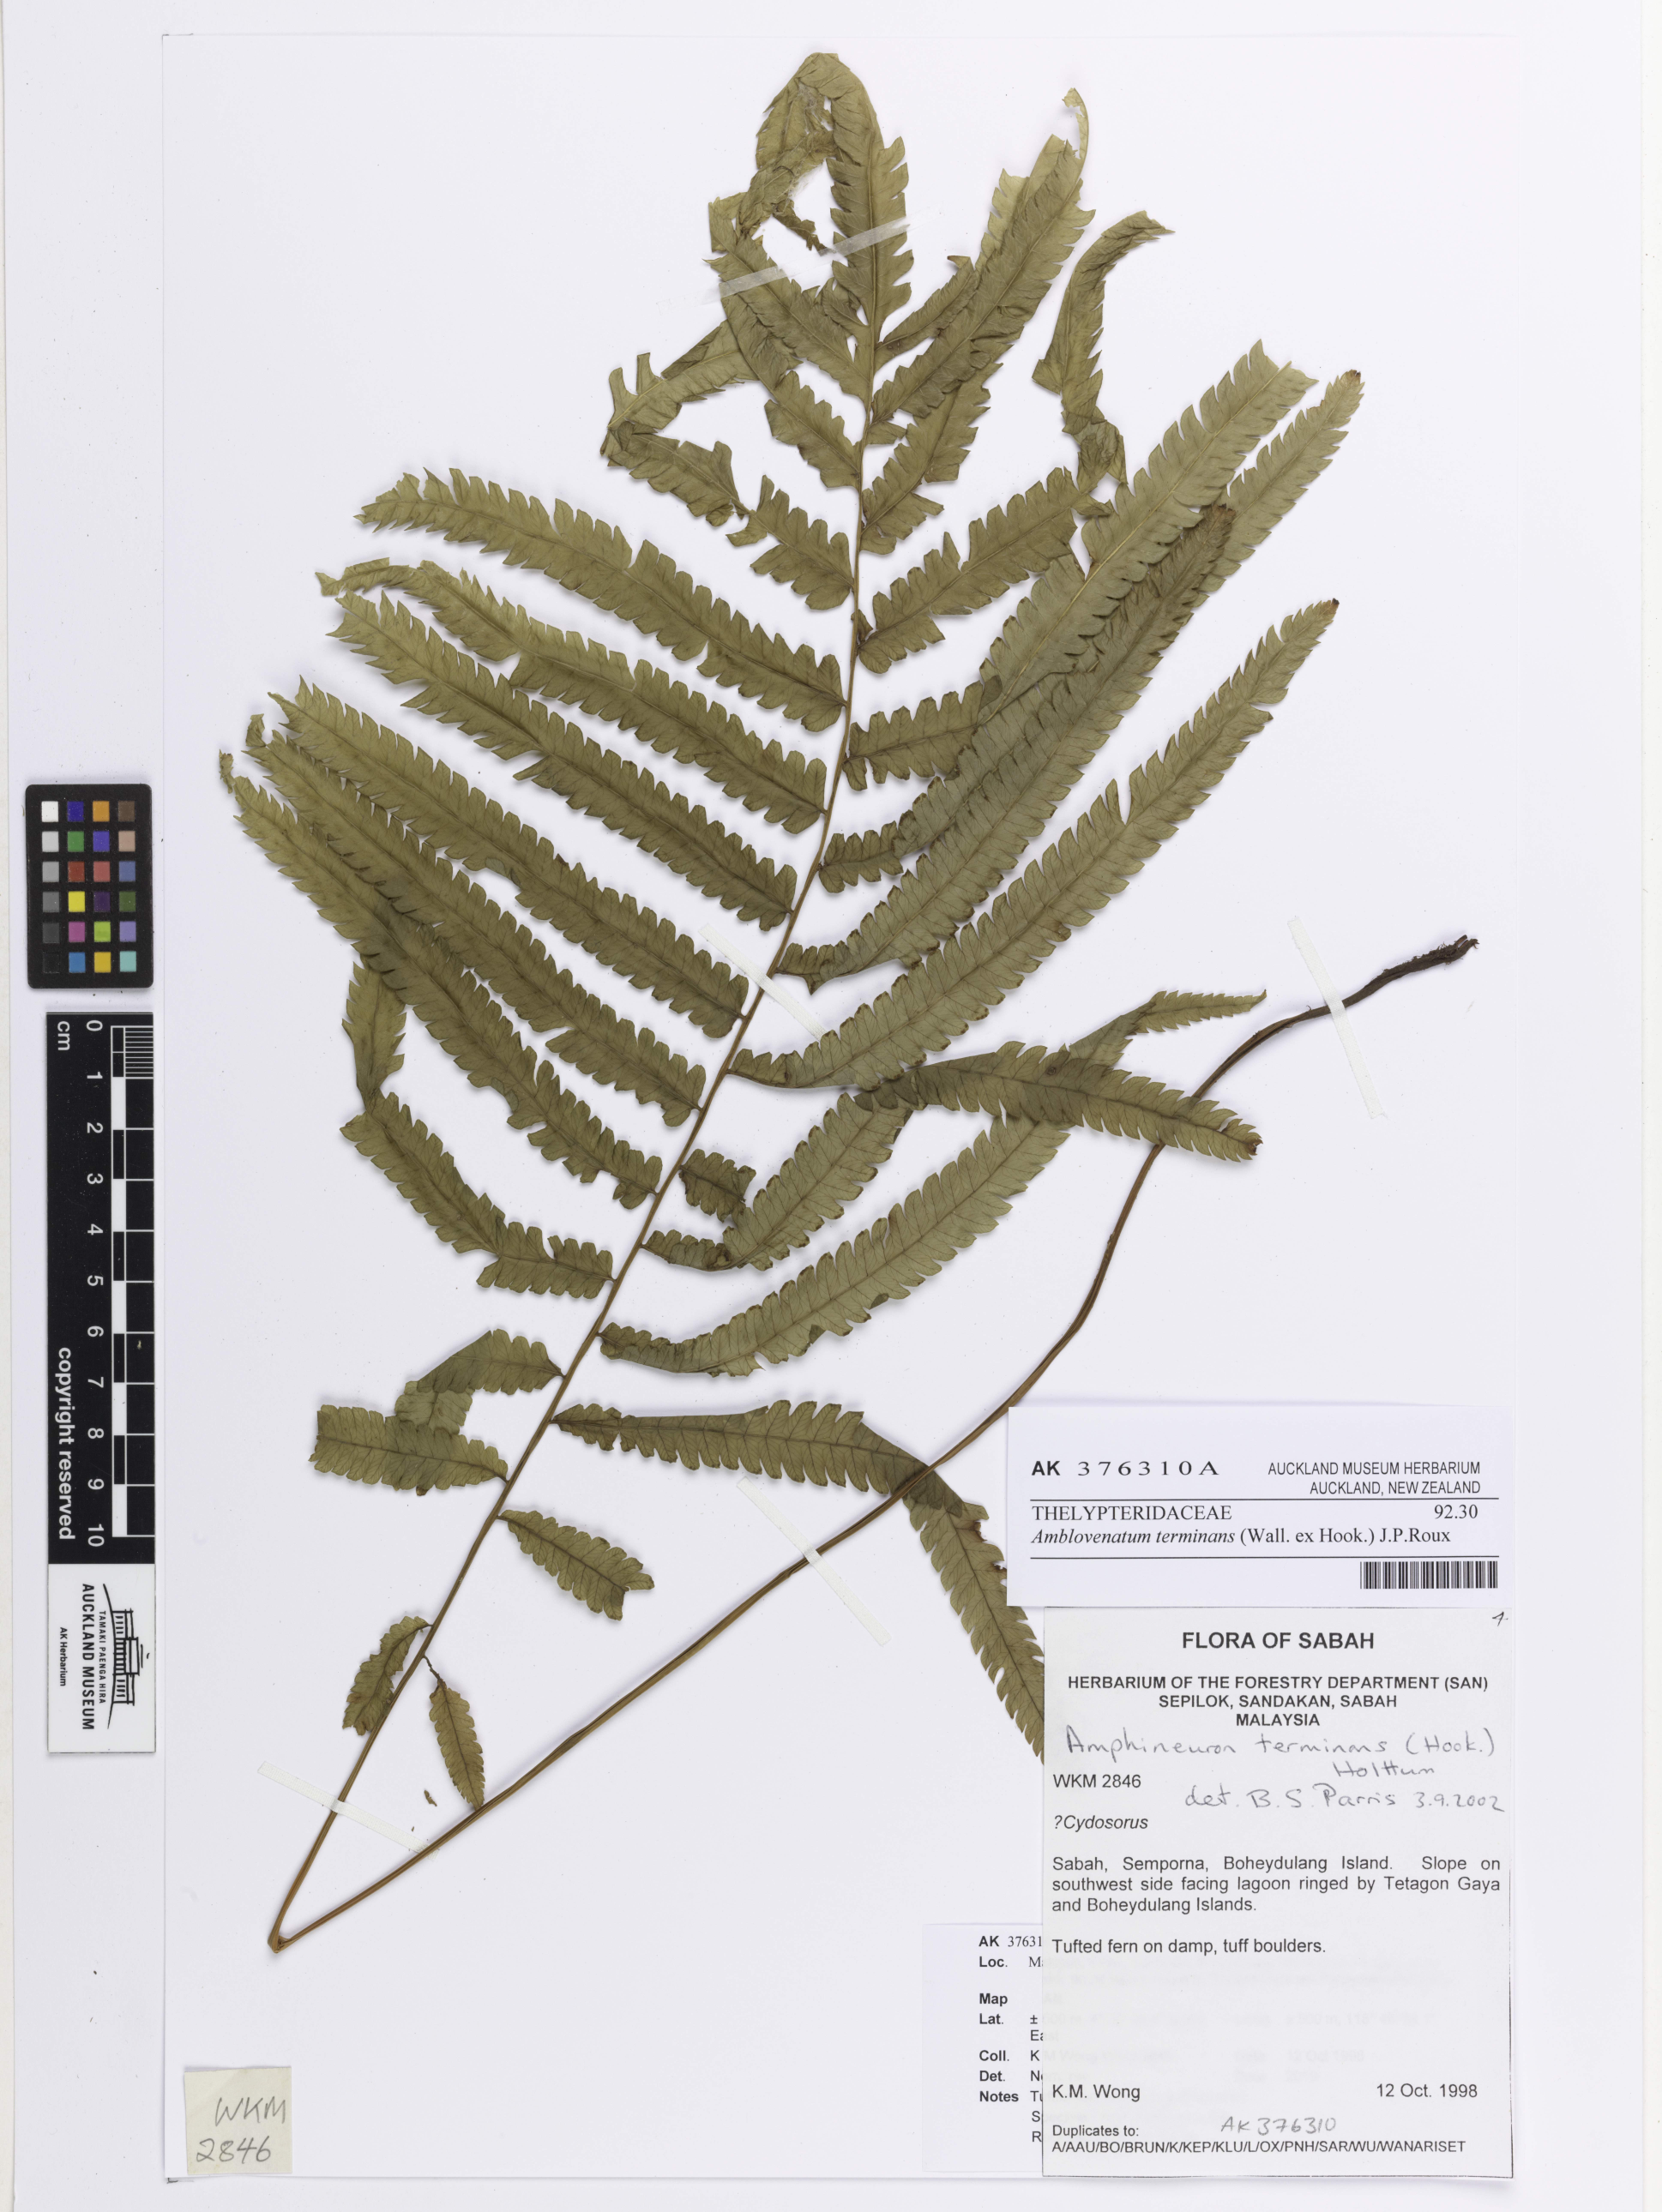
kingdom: Plantae
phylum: Tracheophyta
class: Polypodiopsida
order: Polypodiales
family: Thelypteridaceae
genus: Amblovenatum
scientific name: Amblovenatum terminans
